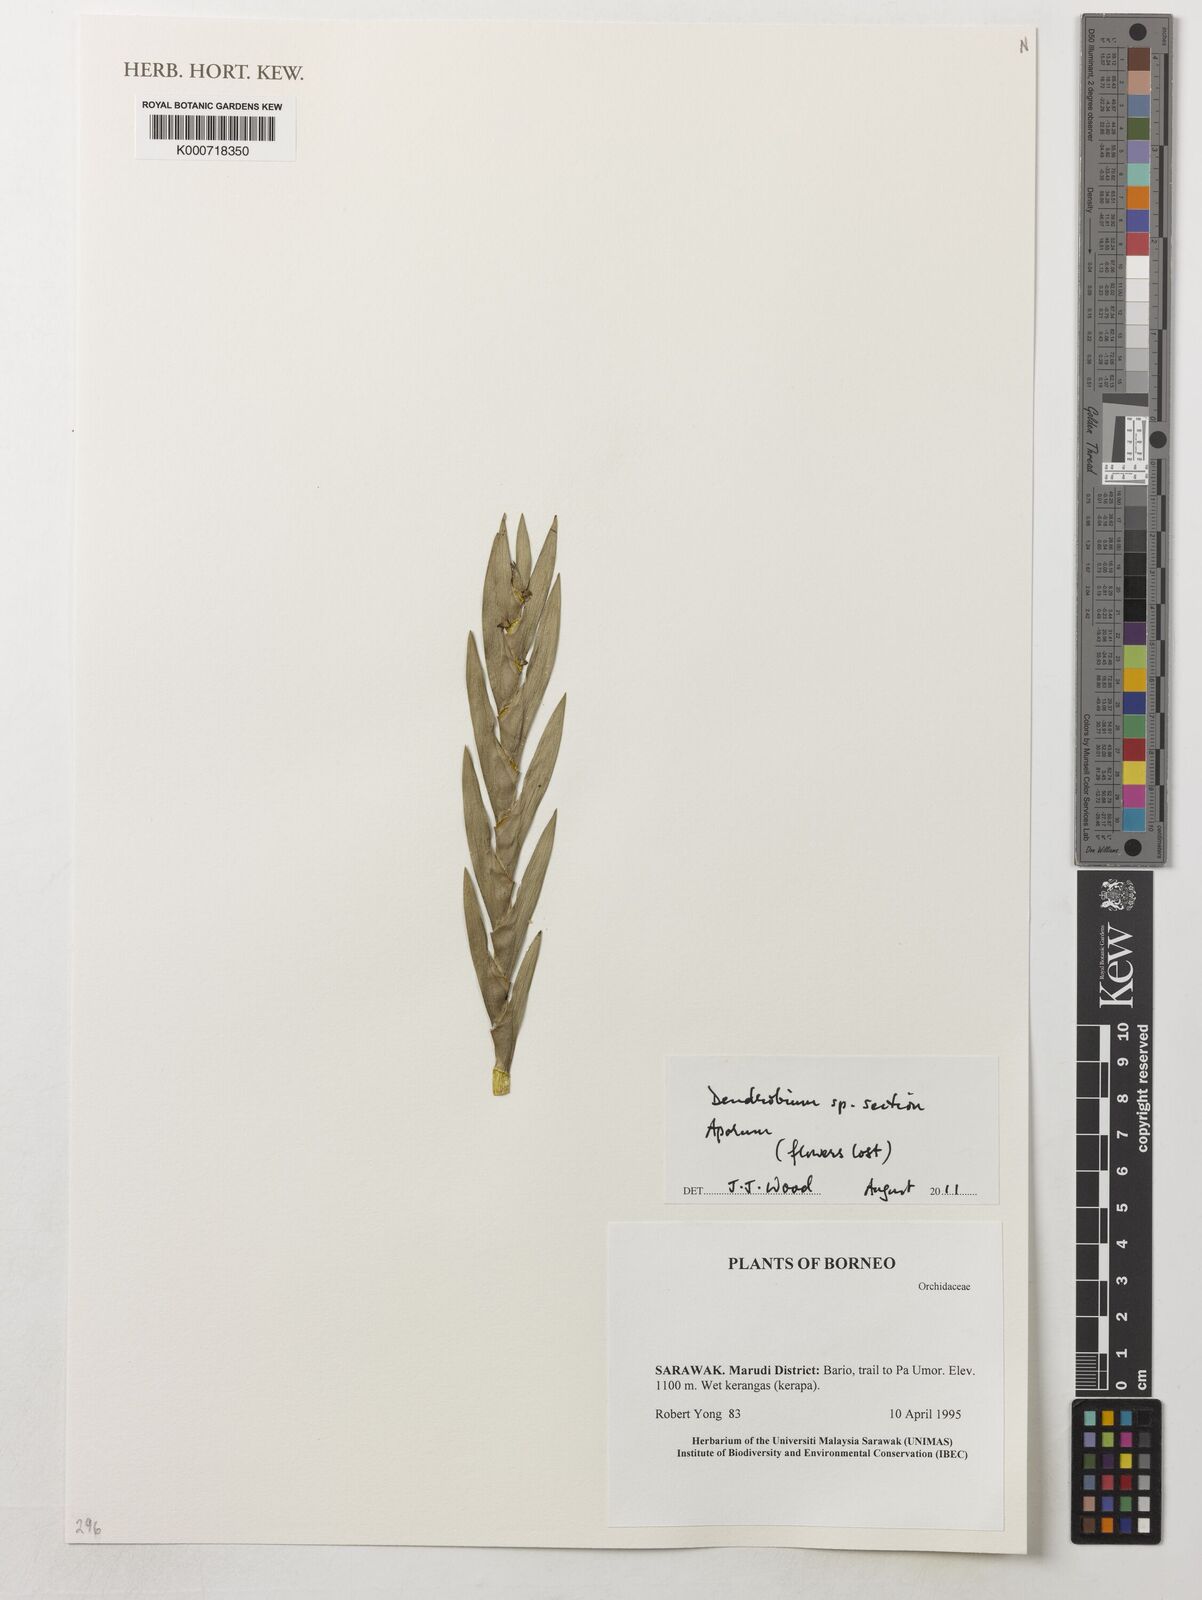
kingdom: Plantae
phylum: Tracheophyta
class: Liliopsida
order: Asparagales
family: Orchidaceae
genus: Dendrobium
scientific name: Dendrobium
